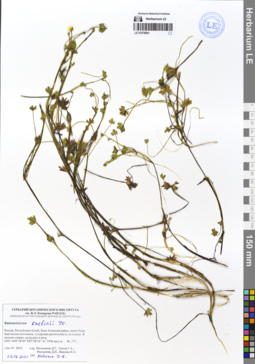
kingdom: Plantae
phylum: Tracheophyta
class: Magnoliopsida
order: Ranunculales
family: Ranunculaceae
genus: Ranunculus
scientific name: Ranunculus gmelinii
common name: Gmelin's buttercup
